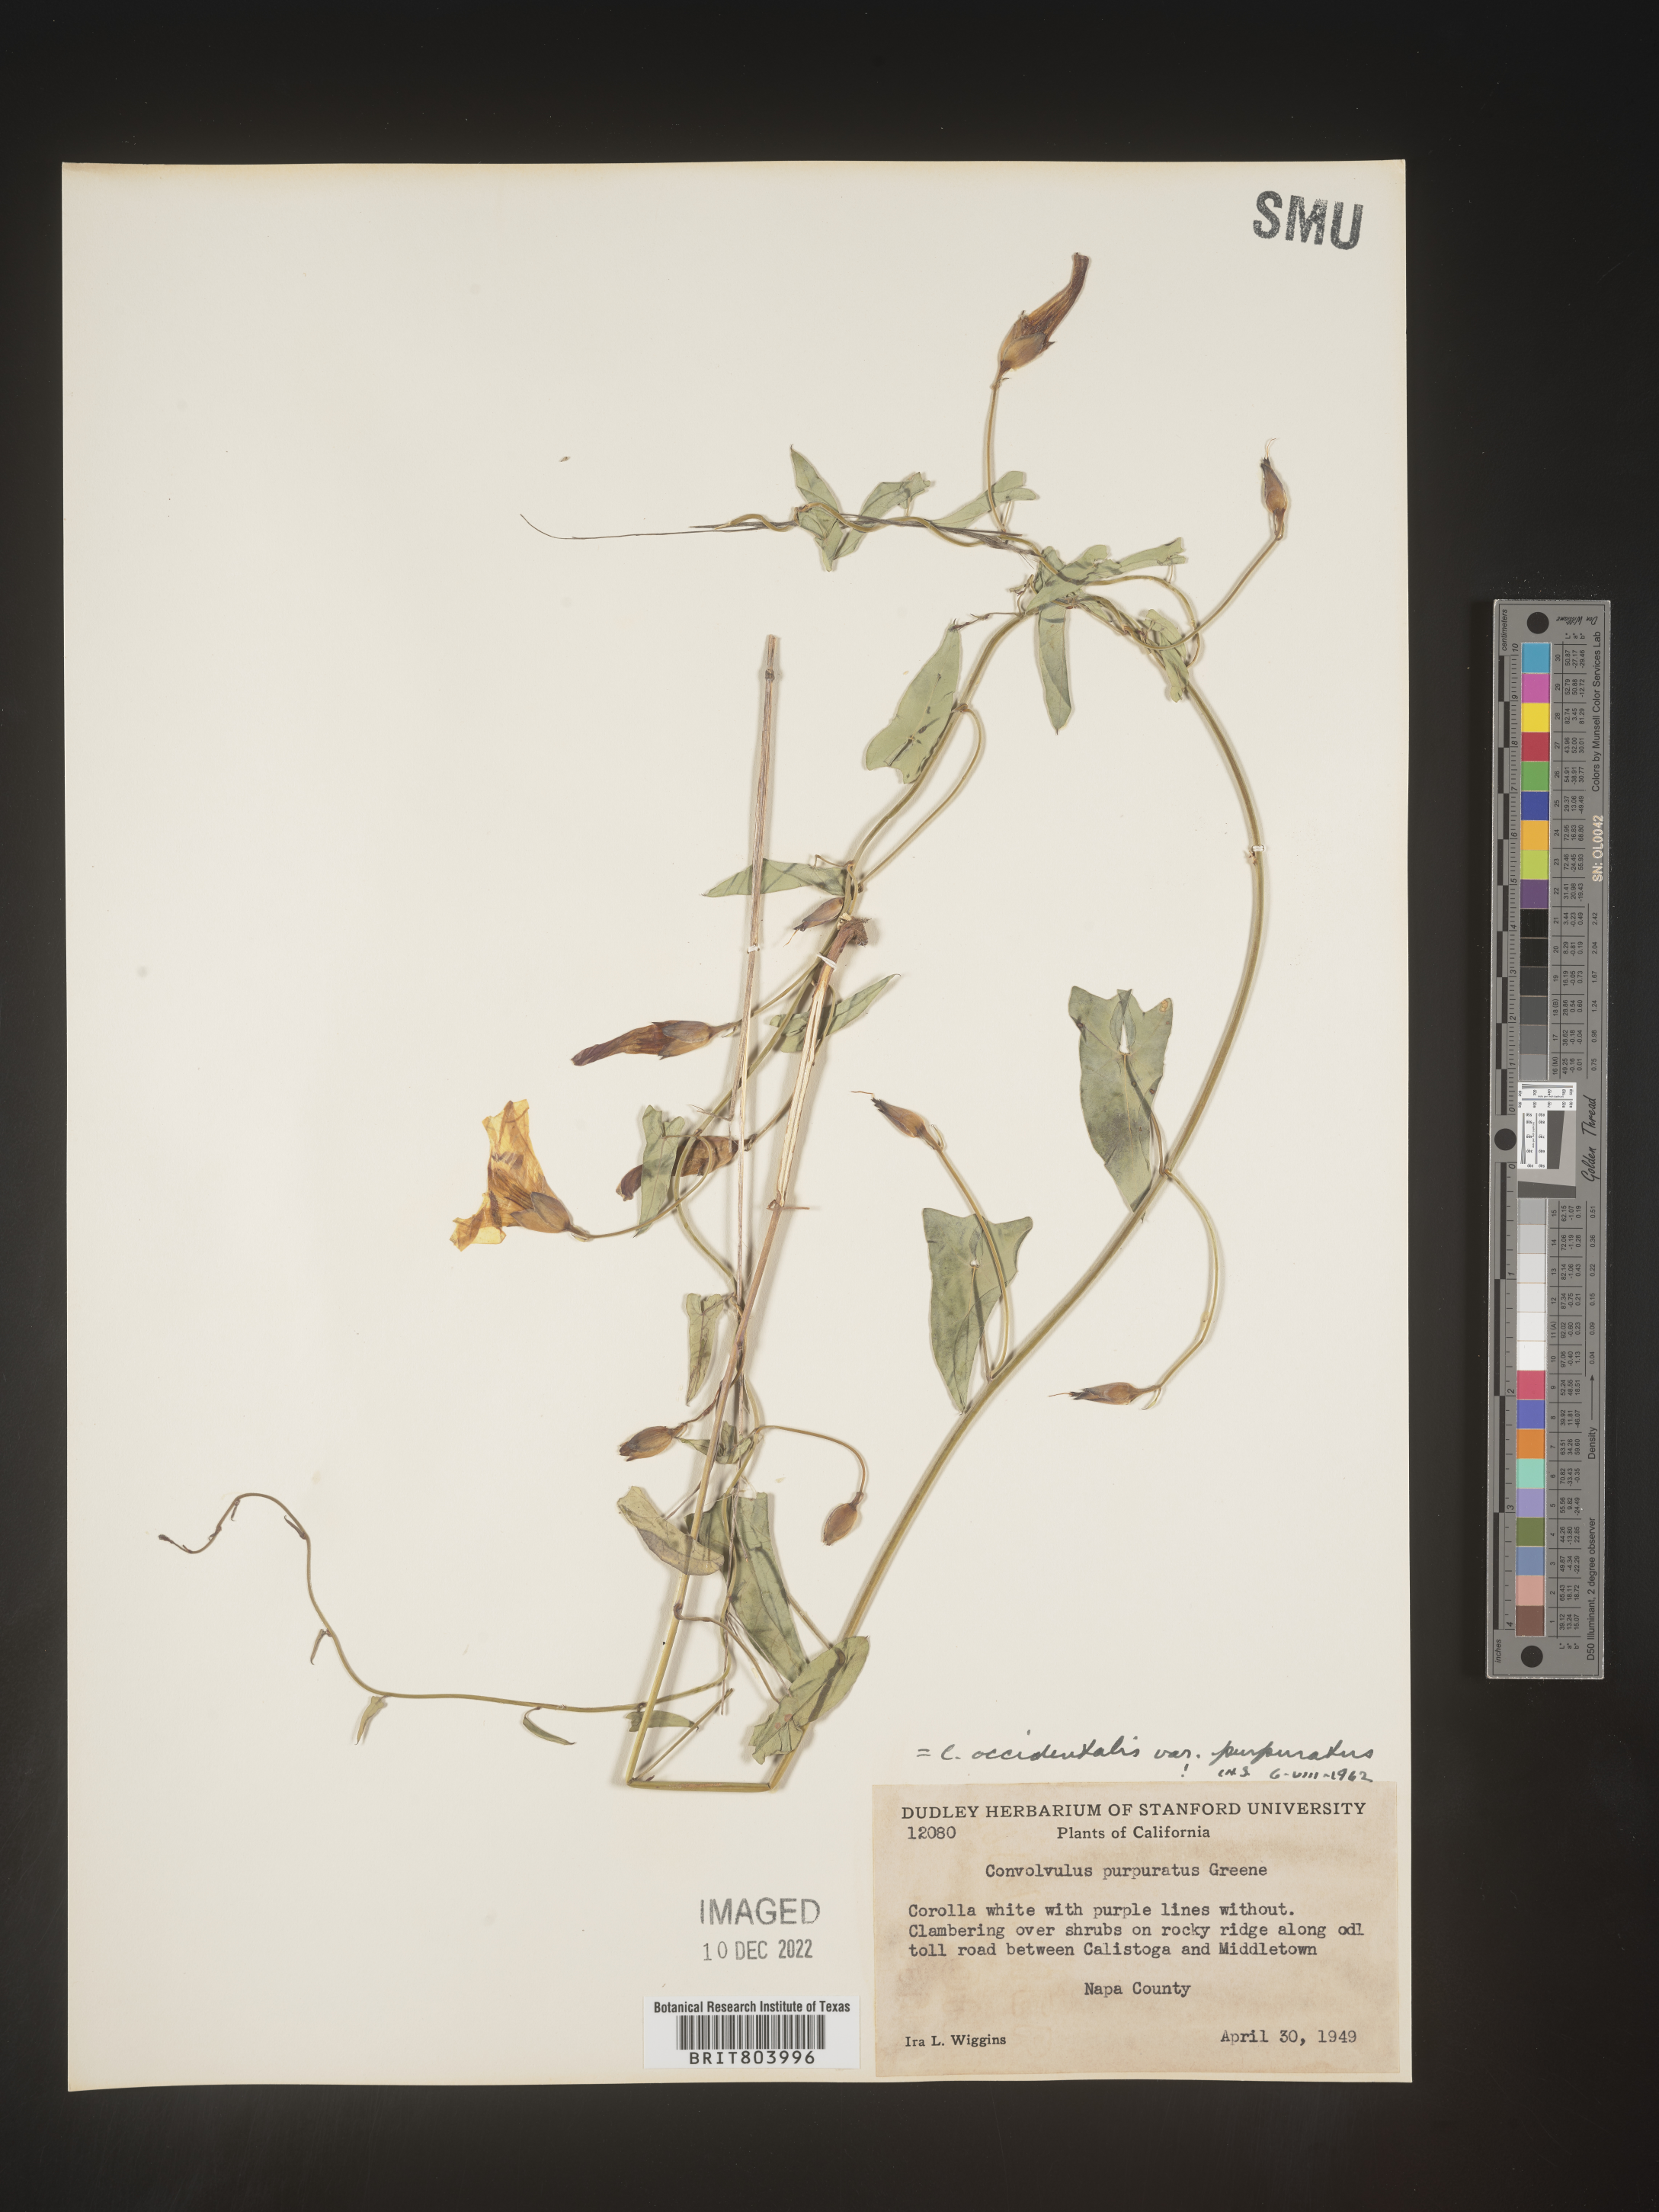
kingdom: Plantae
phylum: Tracheophyta
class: Magnoliopsida
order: Solanales
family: Convolvulaceae
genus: Calystegia
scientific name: Calystegia
